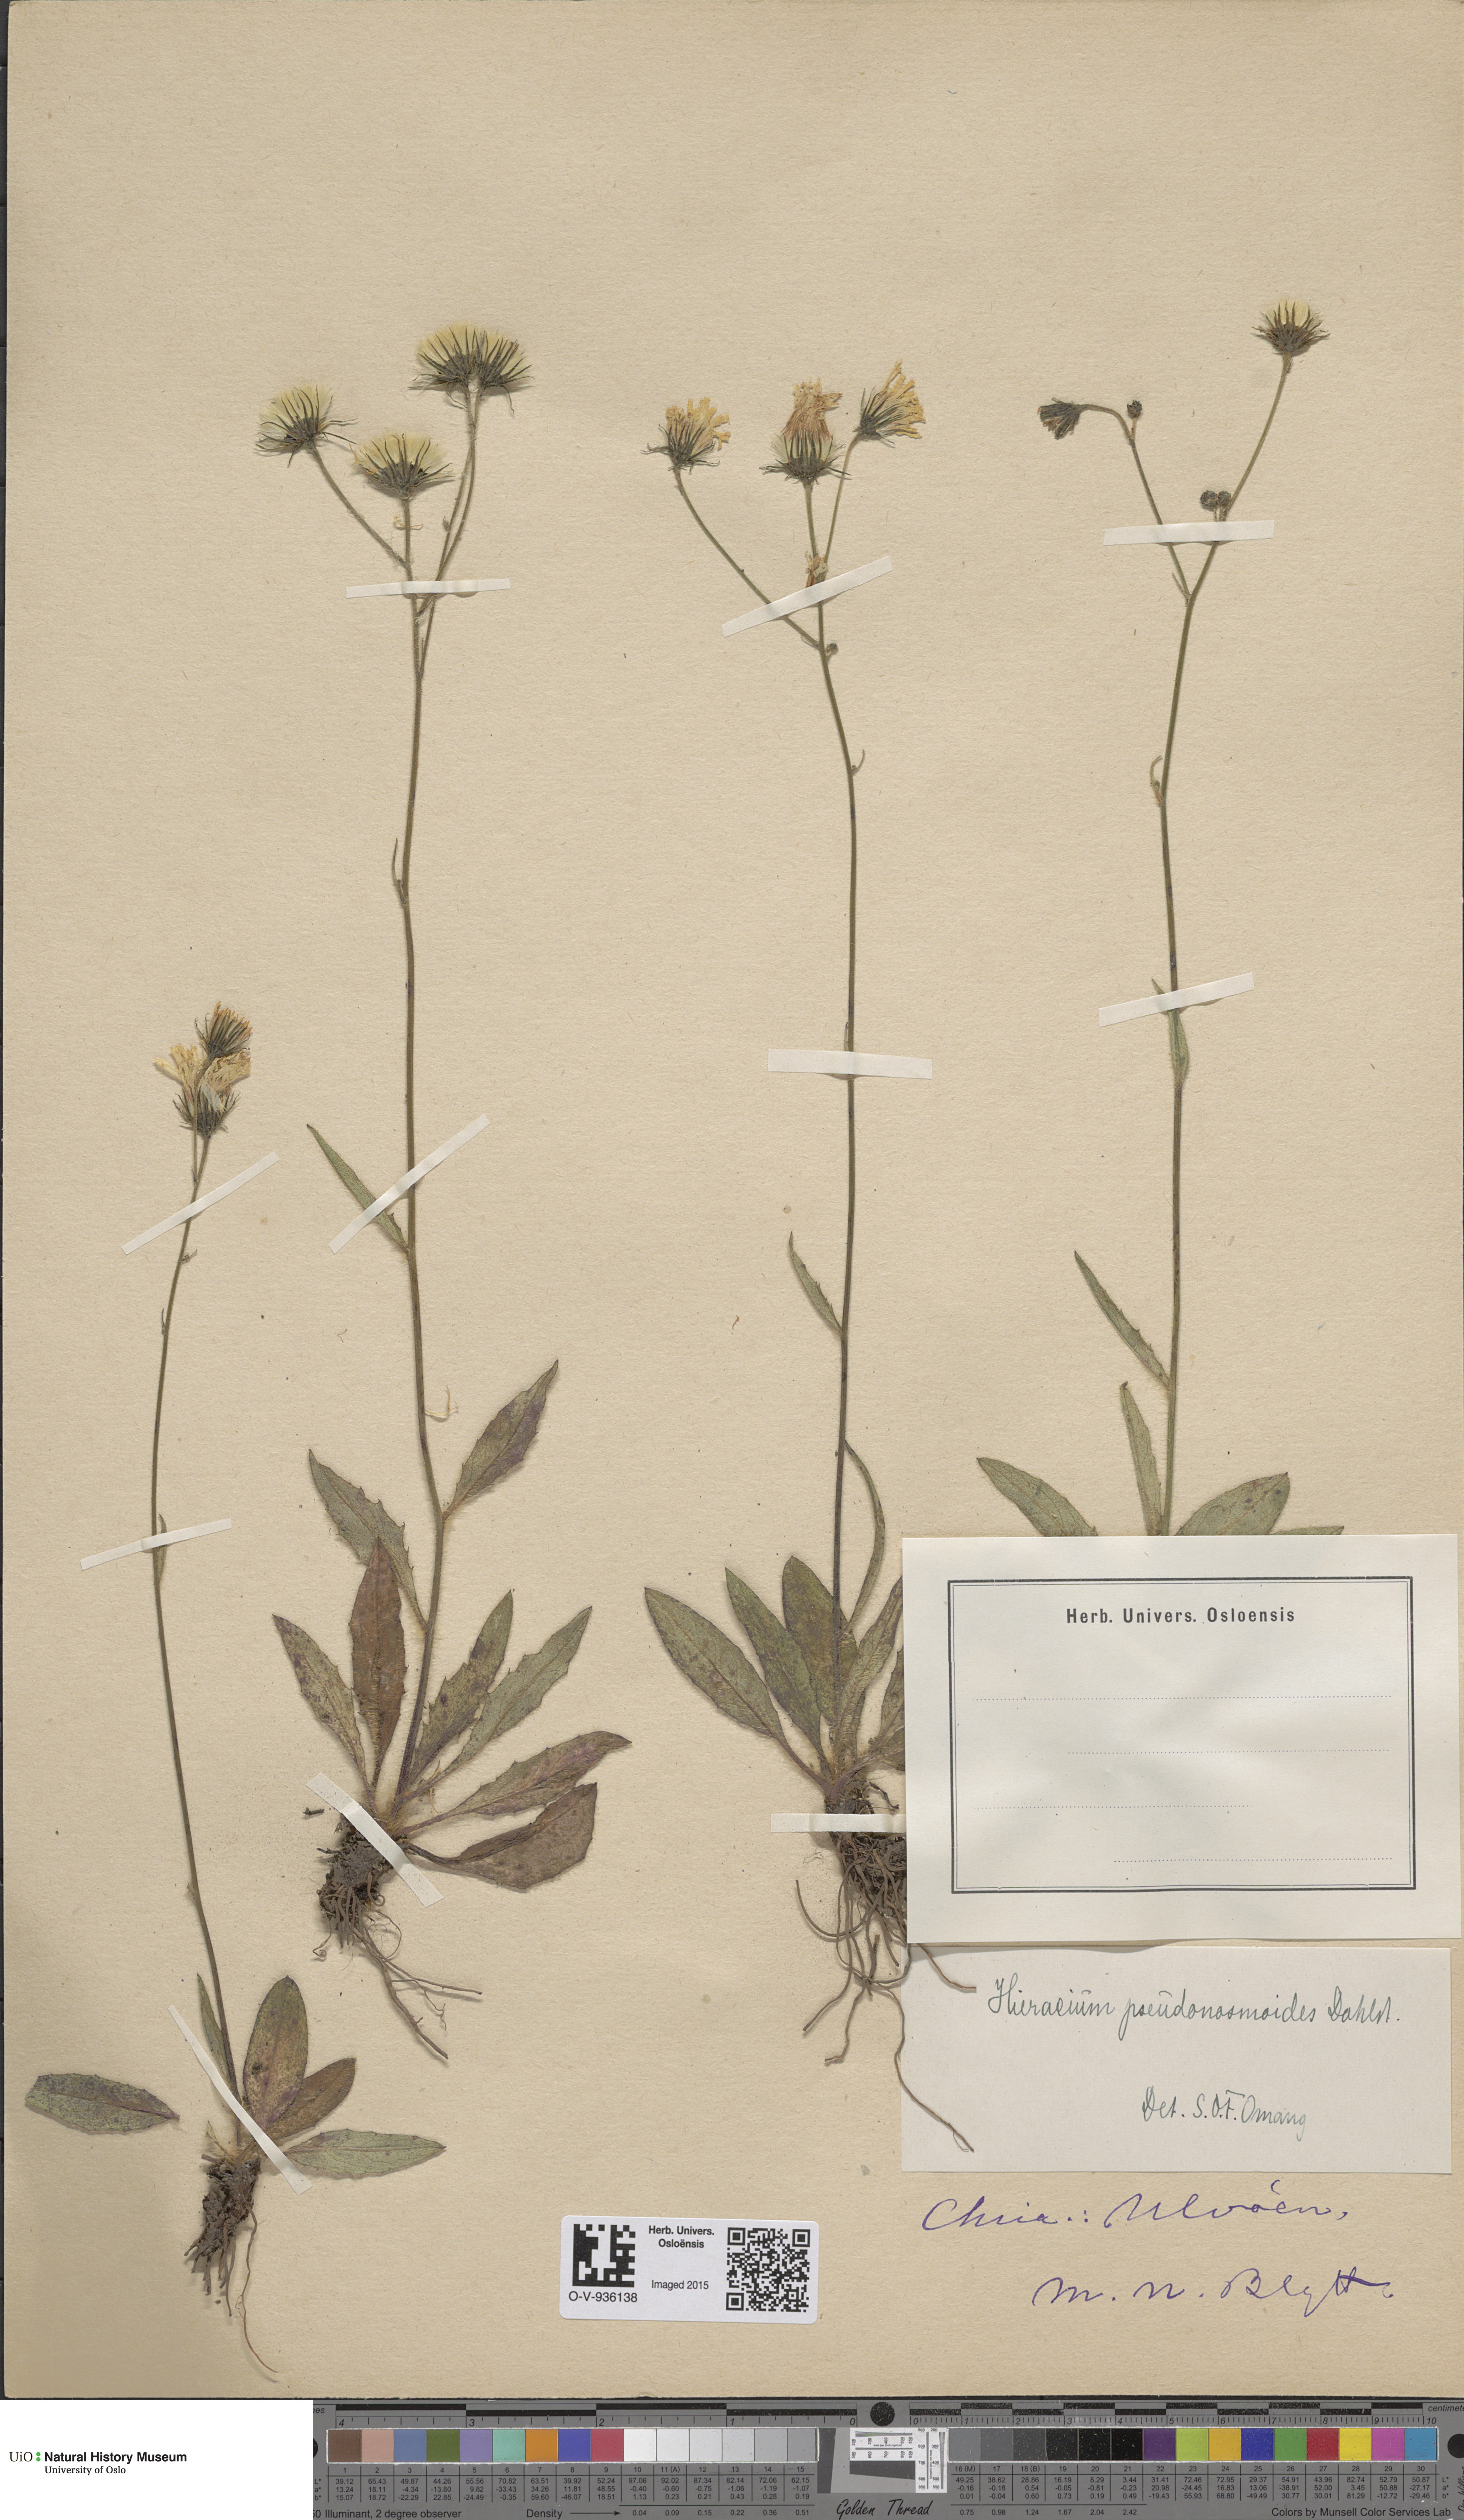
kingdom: Plantae
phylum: Tracheophyta
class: Magnoliopsida
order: Asterales
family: Asteraceae
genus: Hieracium
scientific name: Hieracium saxifragum
